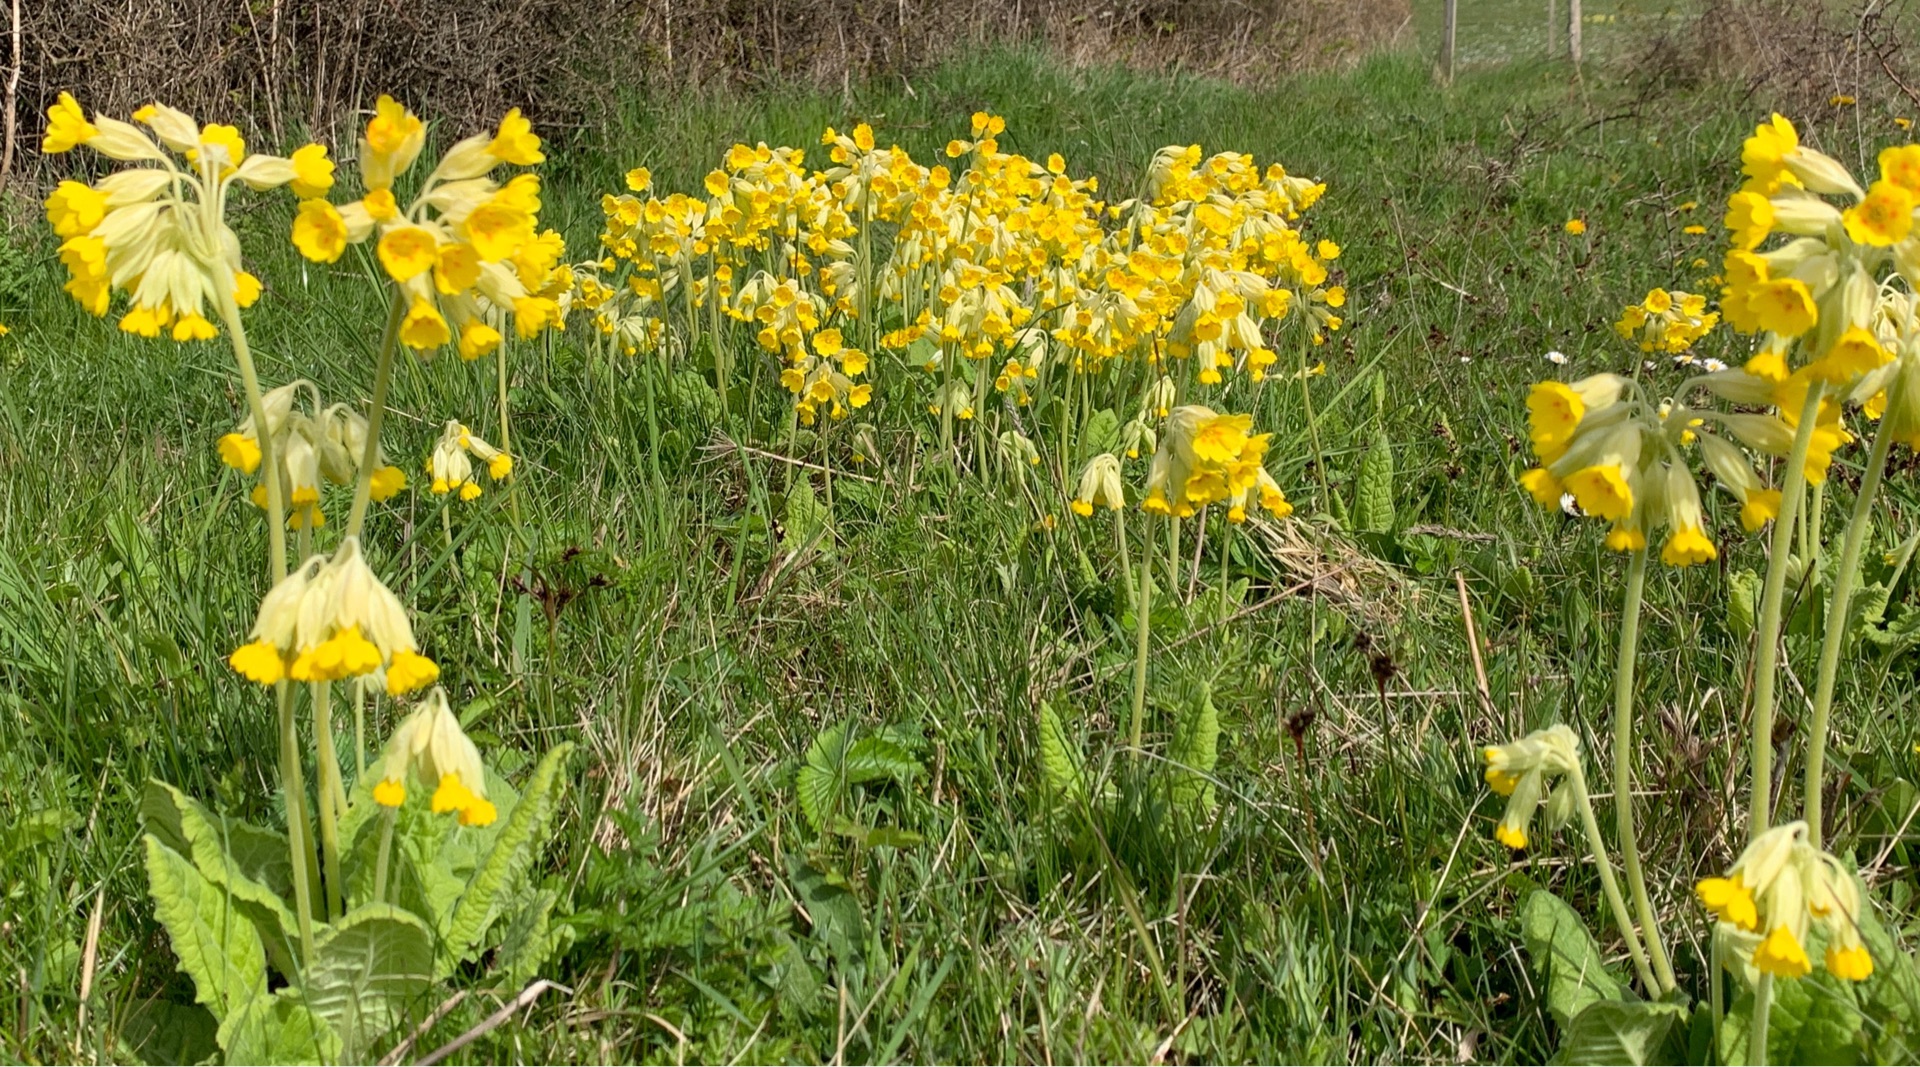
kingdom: Plantae
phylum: Tracheophyta
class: Magnoliopsida
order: Ericales
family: Primulaceae
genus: Primula
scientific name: Primula veris
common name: Hulkravet kodriver
